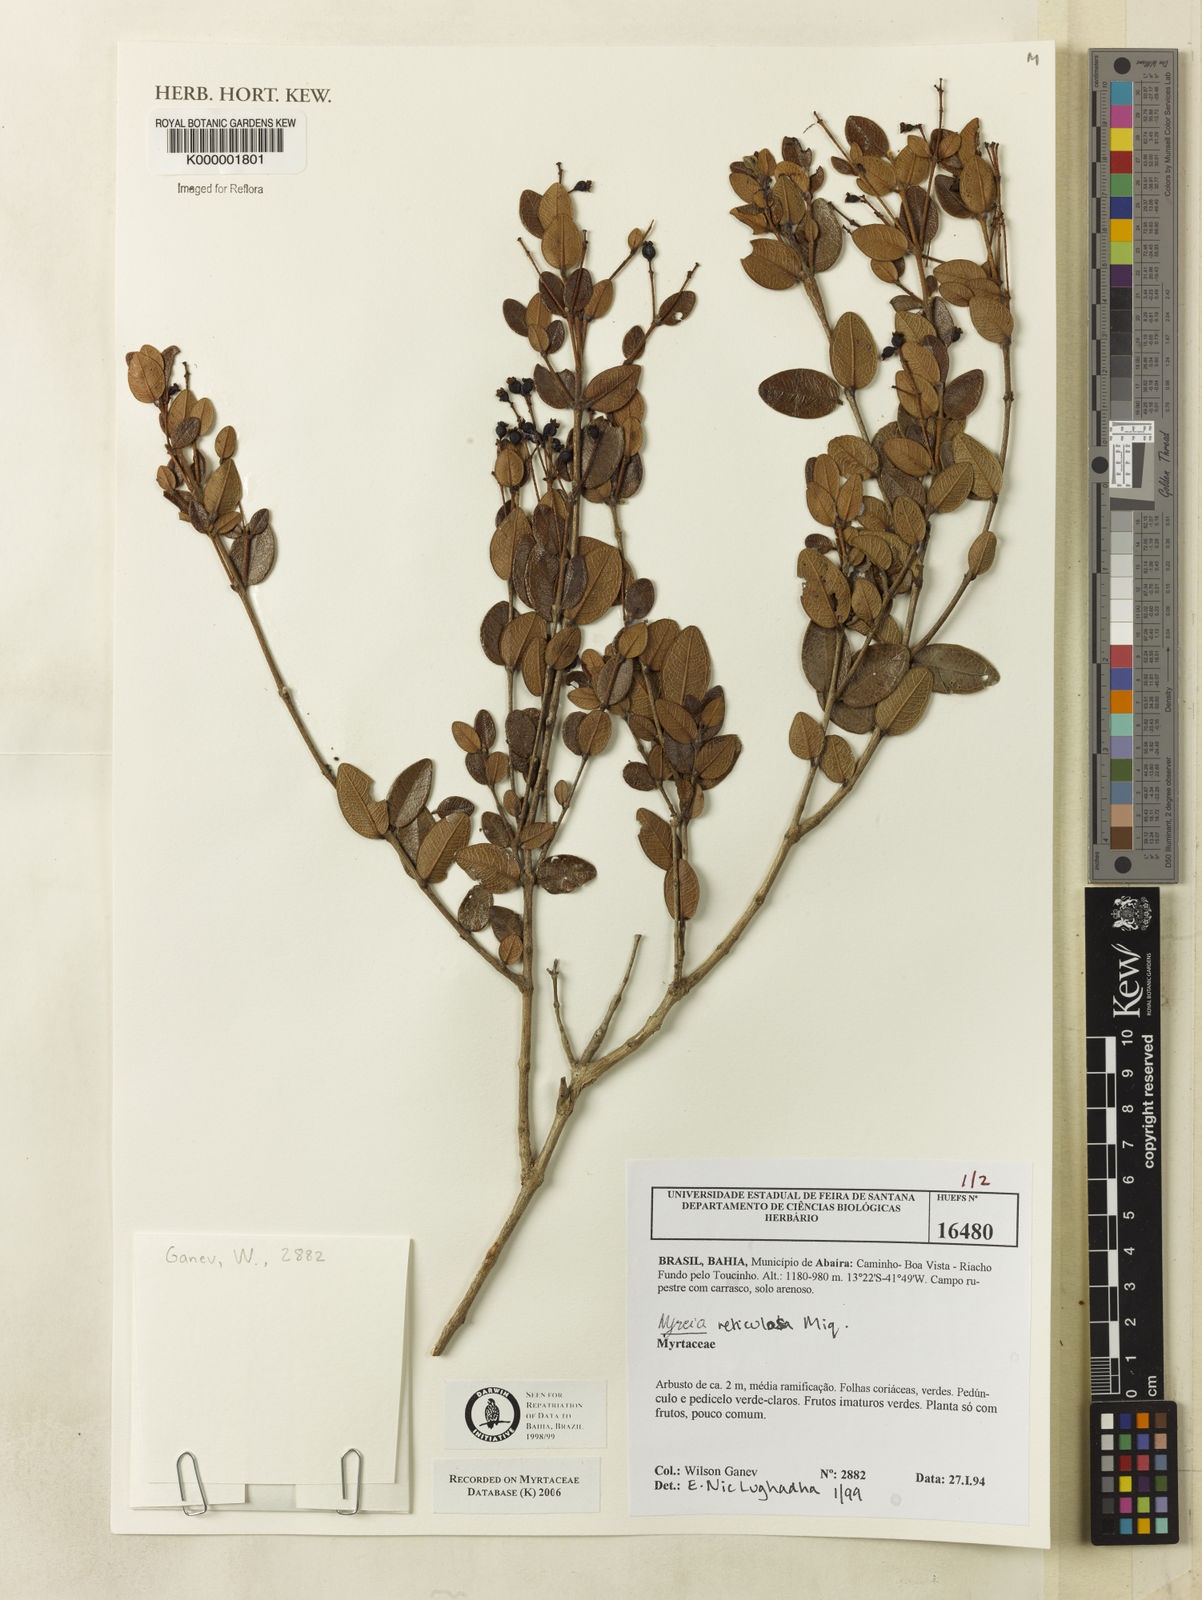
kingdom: Plantae
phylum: Tracheophyta
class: Magnoliopsida
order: Myrtales
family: Myrtaceae
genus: Myrcia
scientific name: Myrcia
